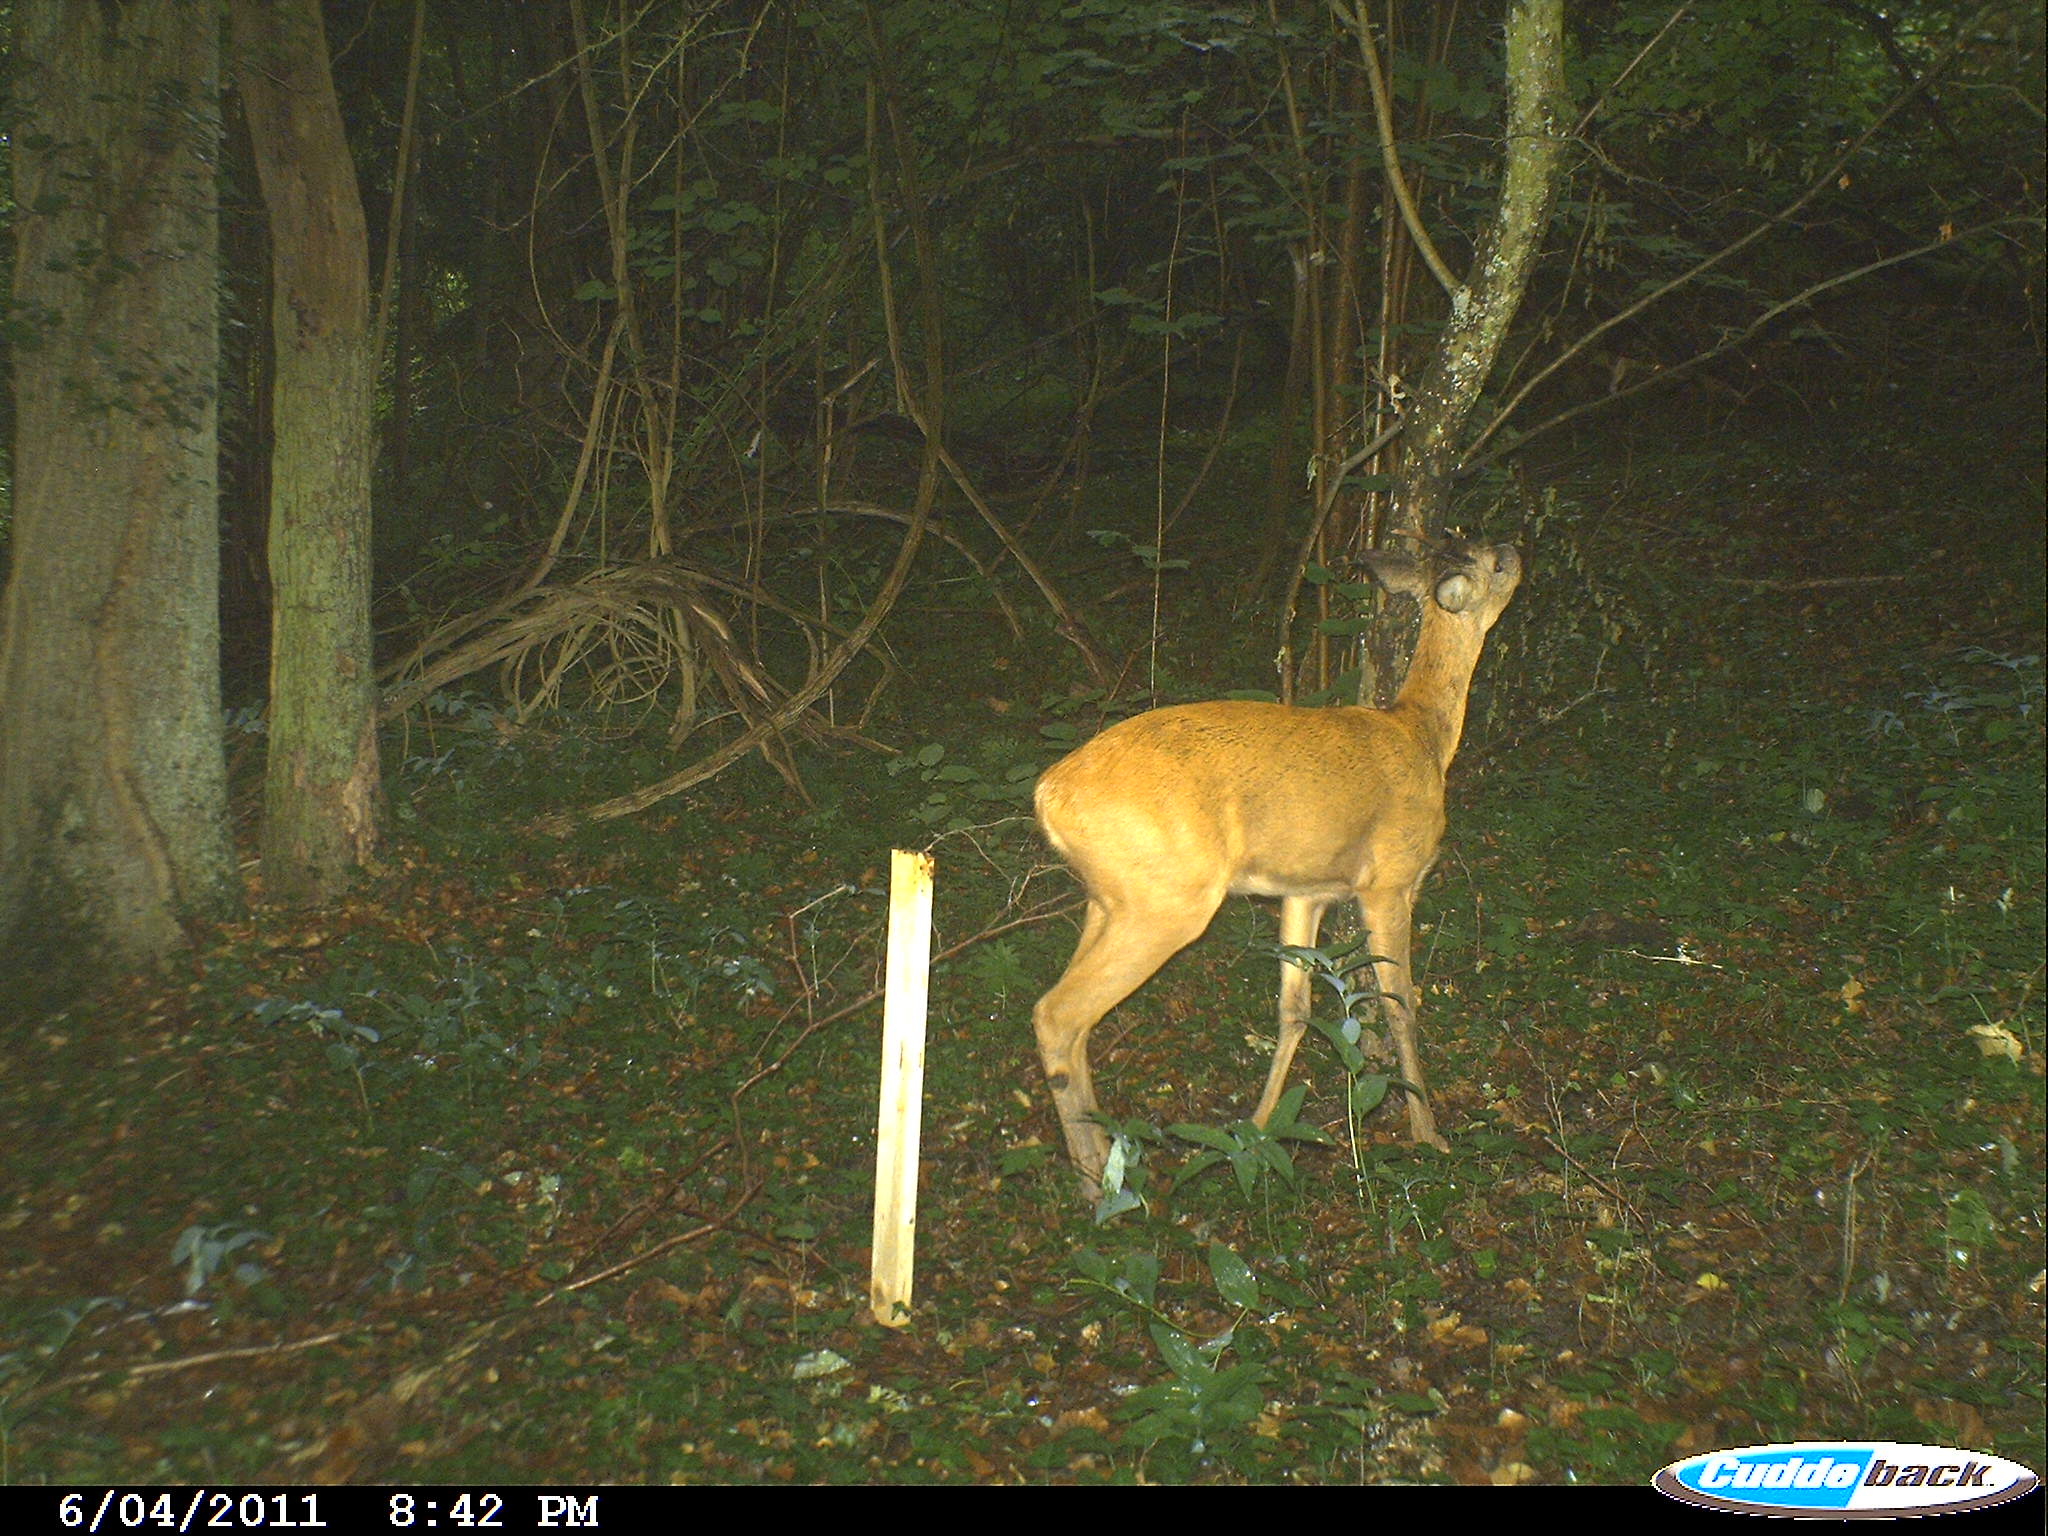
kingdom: Animalia
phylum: Chordata
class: Mammalia
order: Artiodactyla
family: Cervidae
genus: Capreolus
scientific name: Capreolus capreolus
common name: Western roe deer
